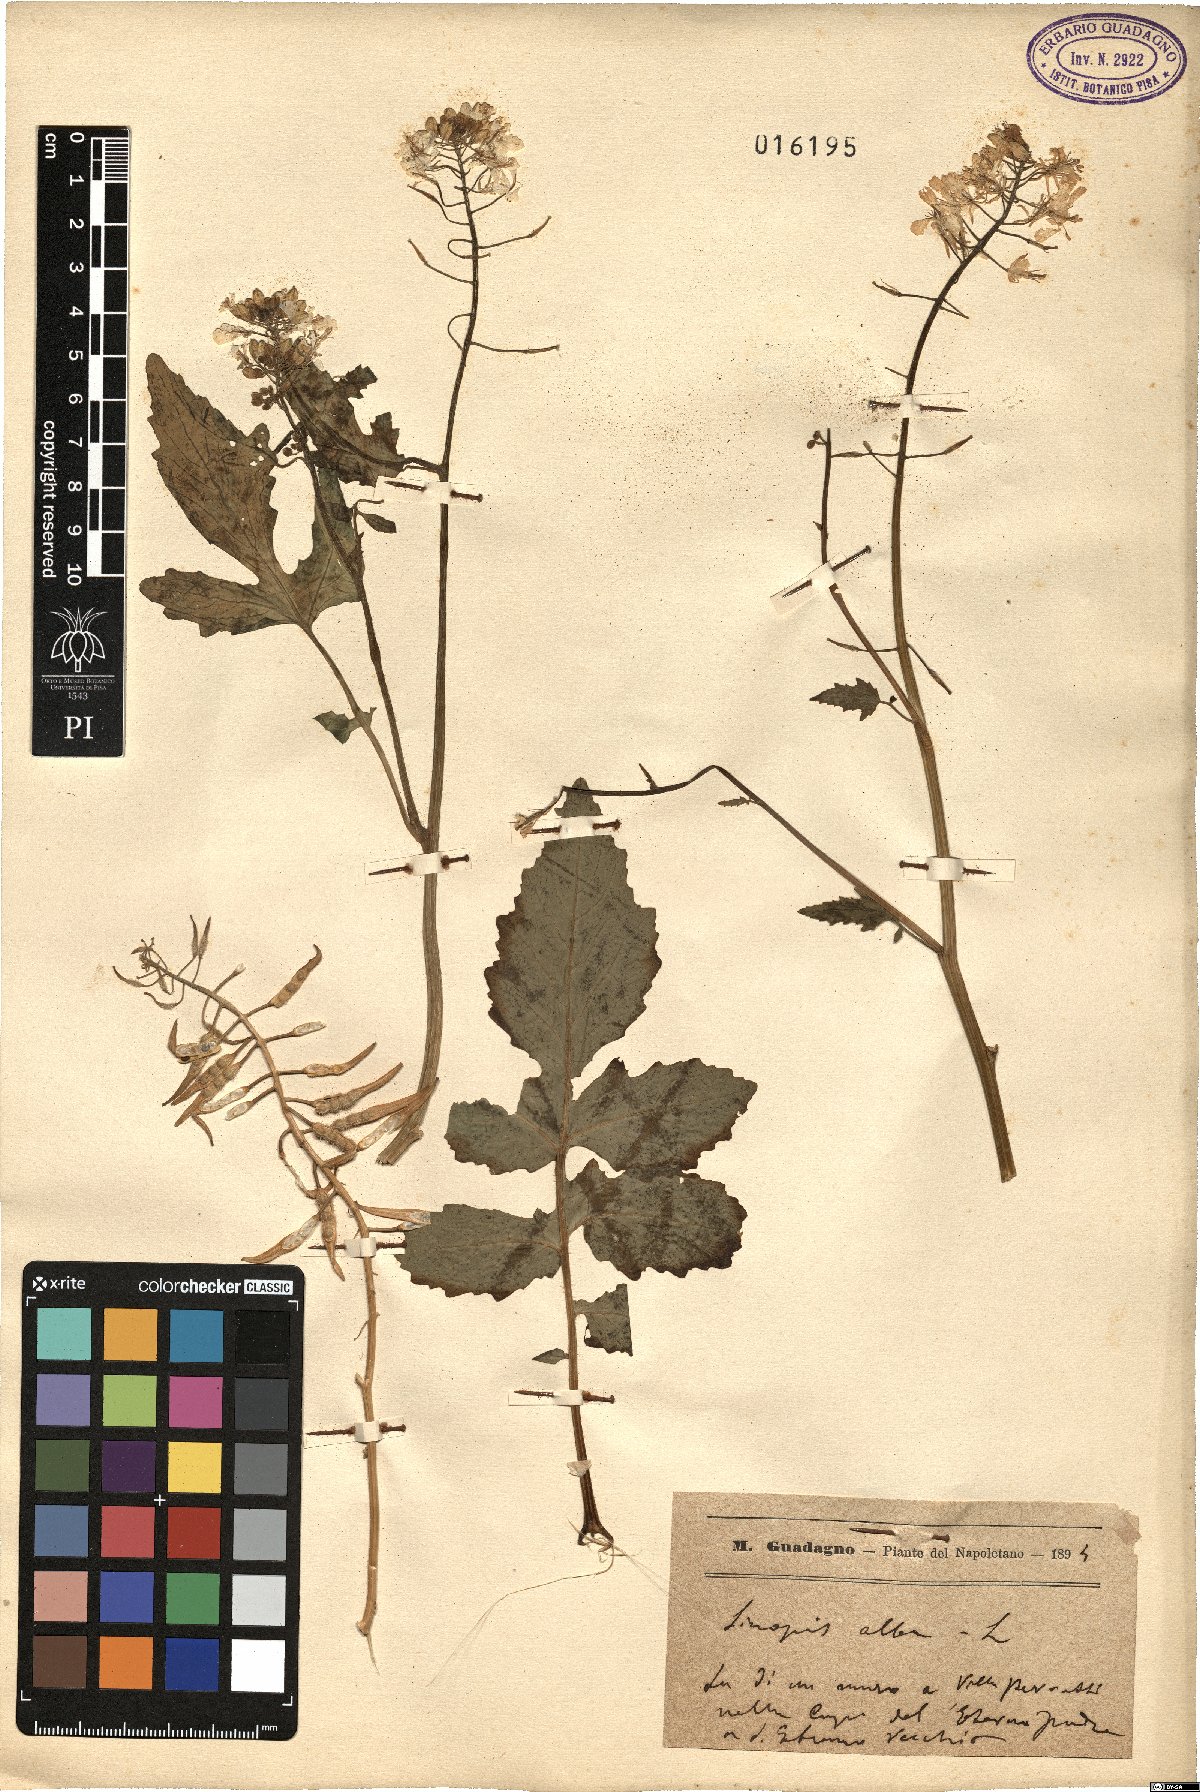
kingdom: Plantae
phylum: Tracheophyta
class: Magnoliopsida
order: Brassicales
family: Brassicaceae
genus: Sinapis
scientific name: Sinapis alba
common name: White mustard
